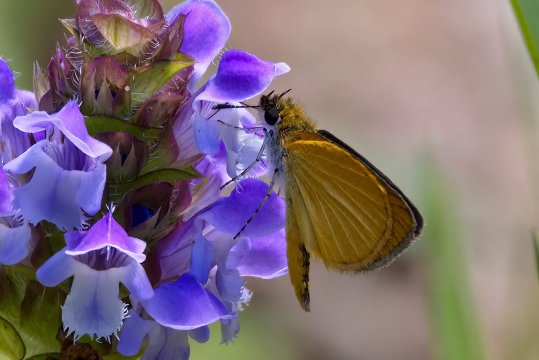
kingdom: Animalia
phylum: Arthropoda
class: Insecta
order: Lepidoptera
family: Hesperiidae
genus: Ancyloxypha
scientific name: Ancyloxypha numitor
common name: Least Skipper
